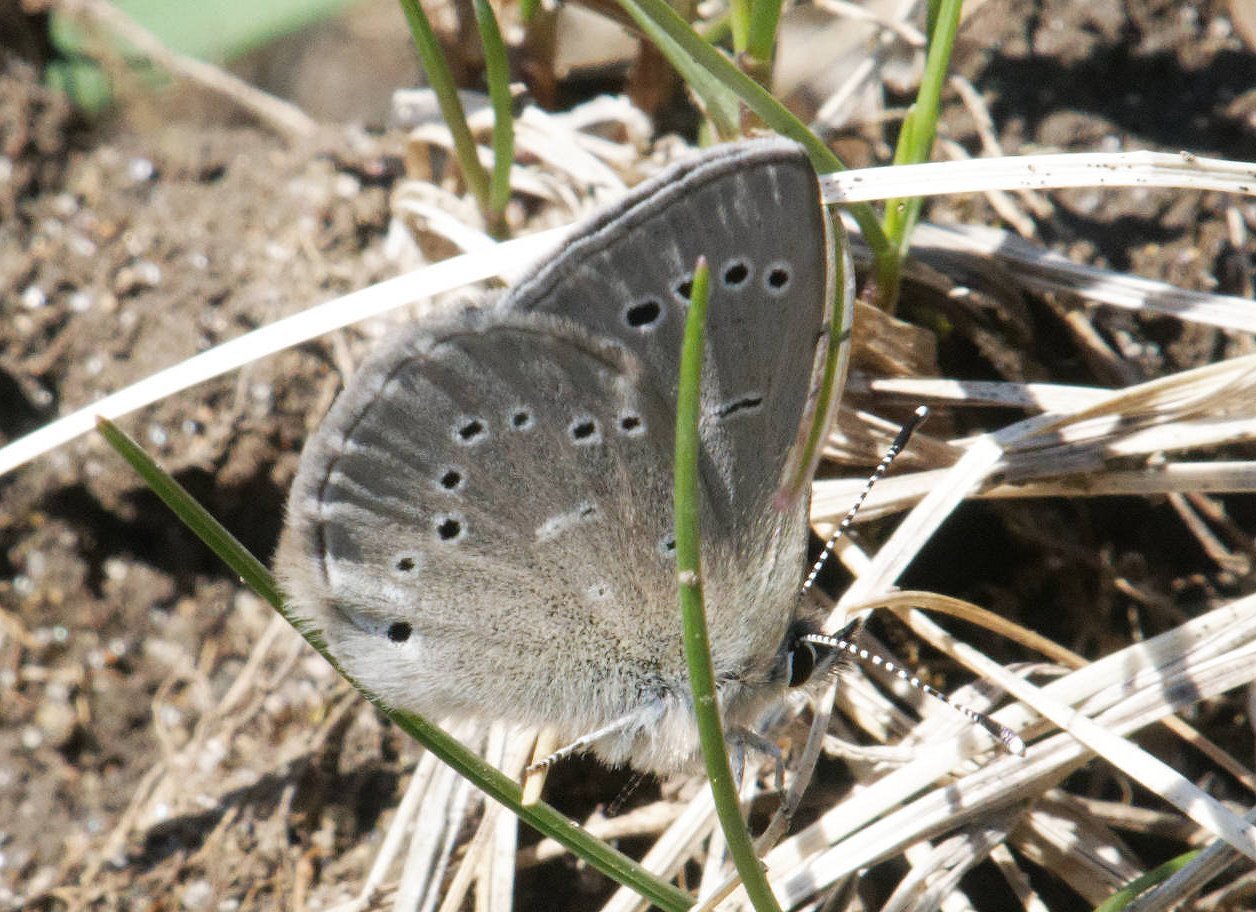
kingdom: Animalia
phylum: Arthropoda
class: Insecta
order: Lepidoptera
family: Lycaenidae
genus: Glaucopsyche
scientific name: Glaucopsyche lygdamus
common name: Silvery Blue
